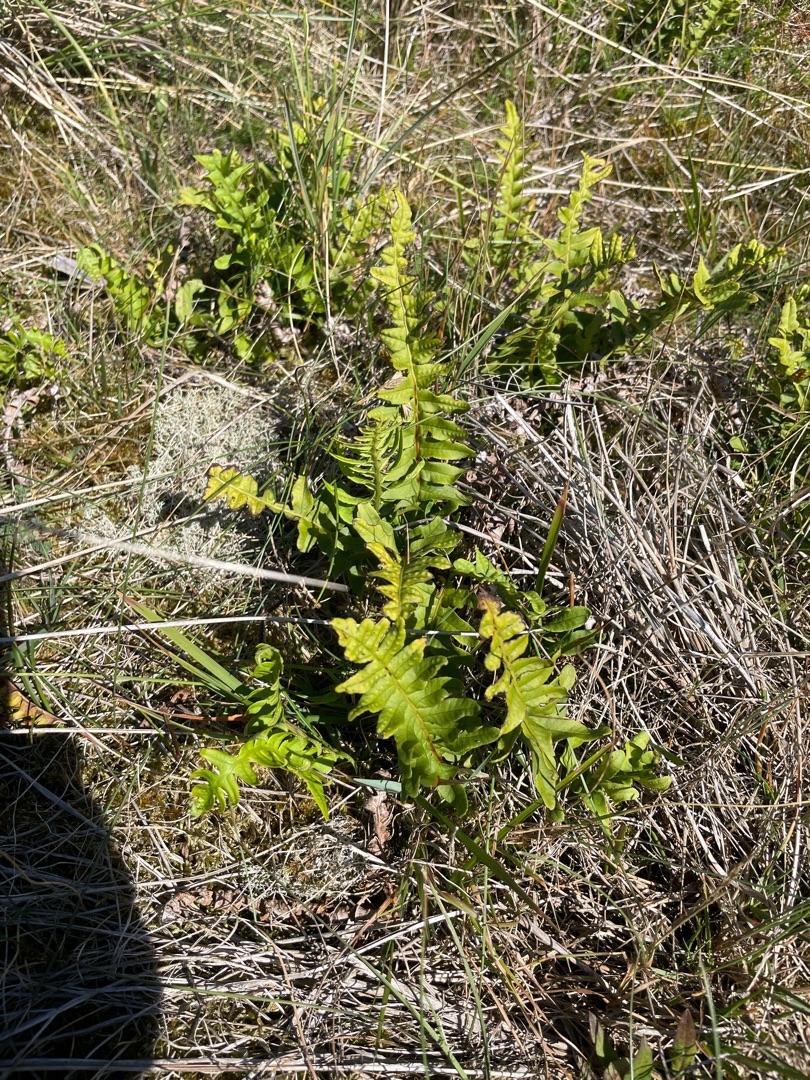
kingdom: Plantae
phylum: Tracheophyta
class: Polypodiopsida
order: Polypodiales
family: Polypodiaceae
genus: Polypodium
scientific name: Polypodium vulgare
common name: Almindelig engelsød
